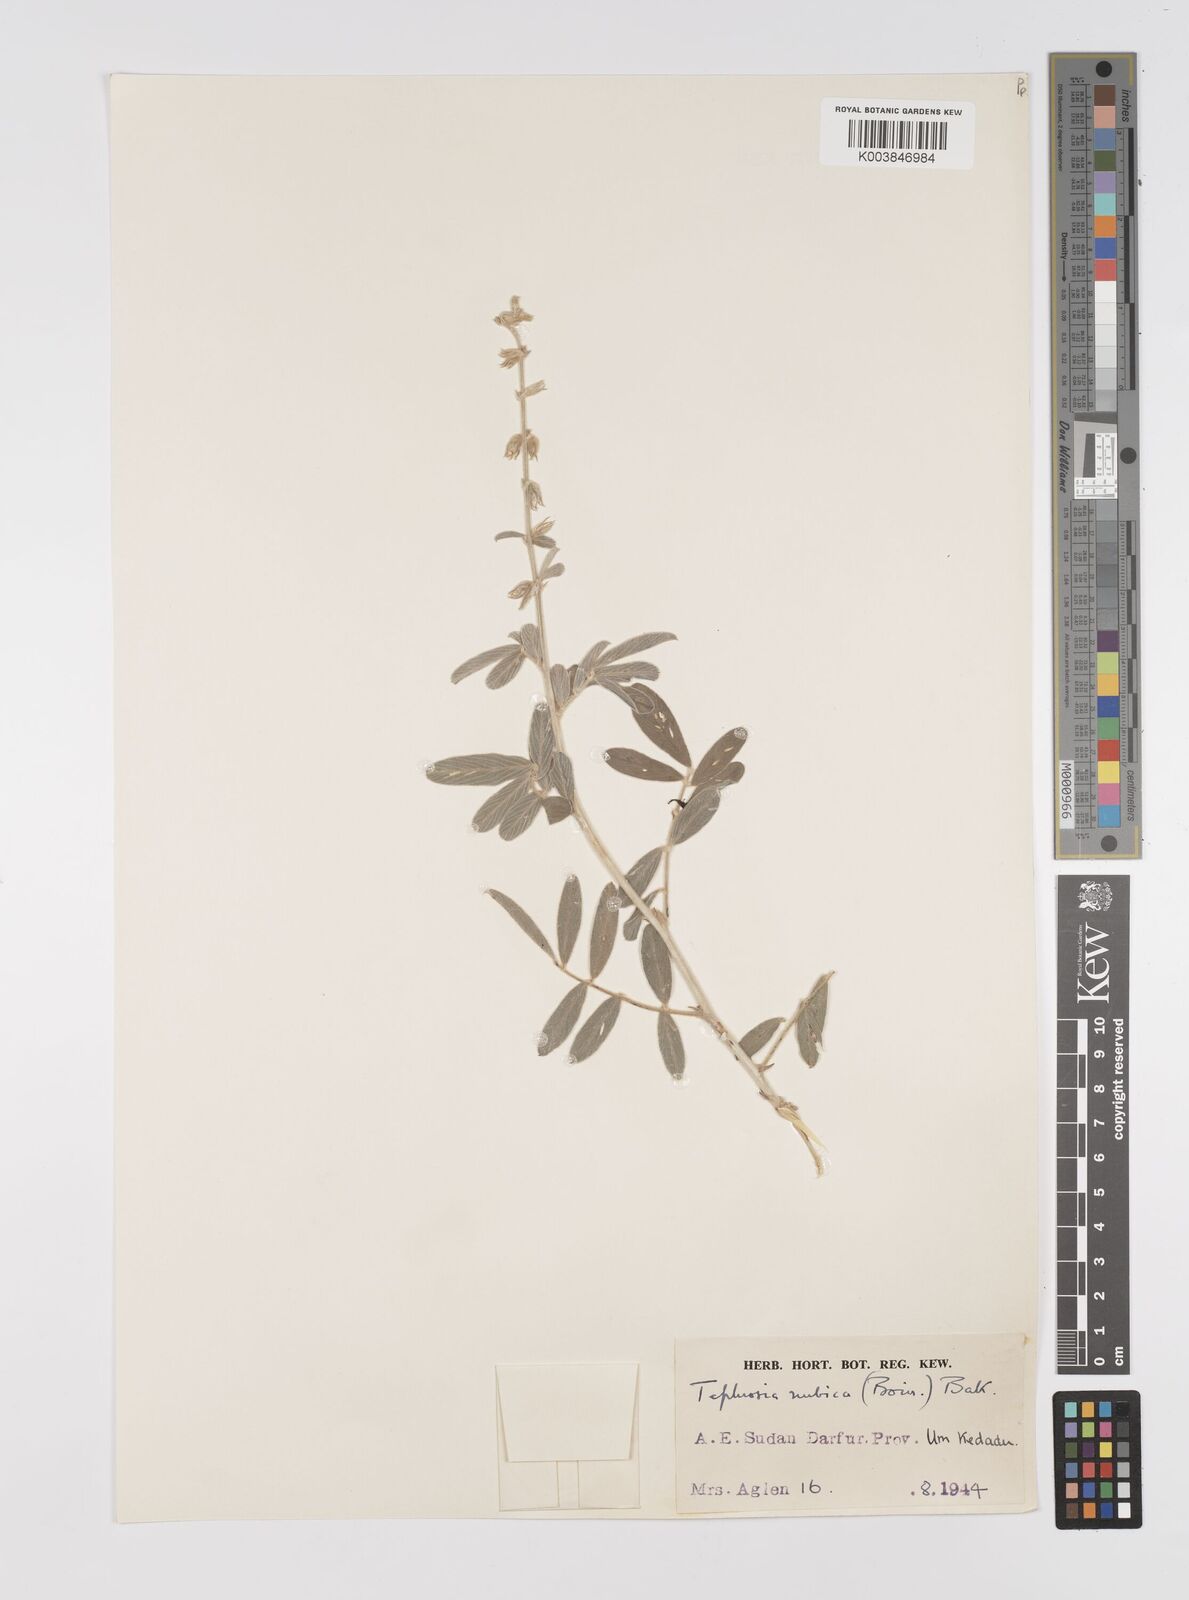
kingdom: Plantae
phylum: Tracheophyta
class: Magnoliopsida
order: Fabales
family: Fabaceae
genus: Tephrosia
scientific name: Tephrosia nubica
